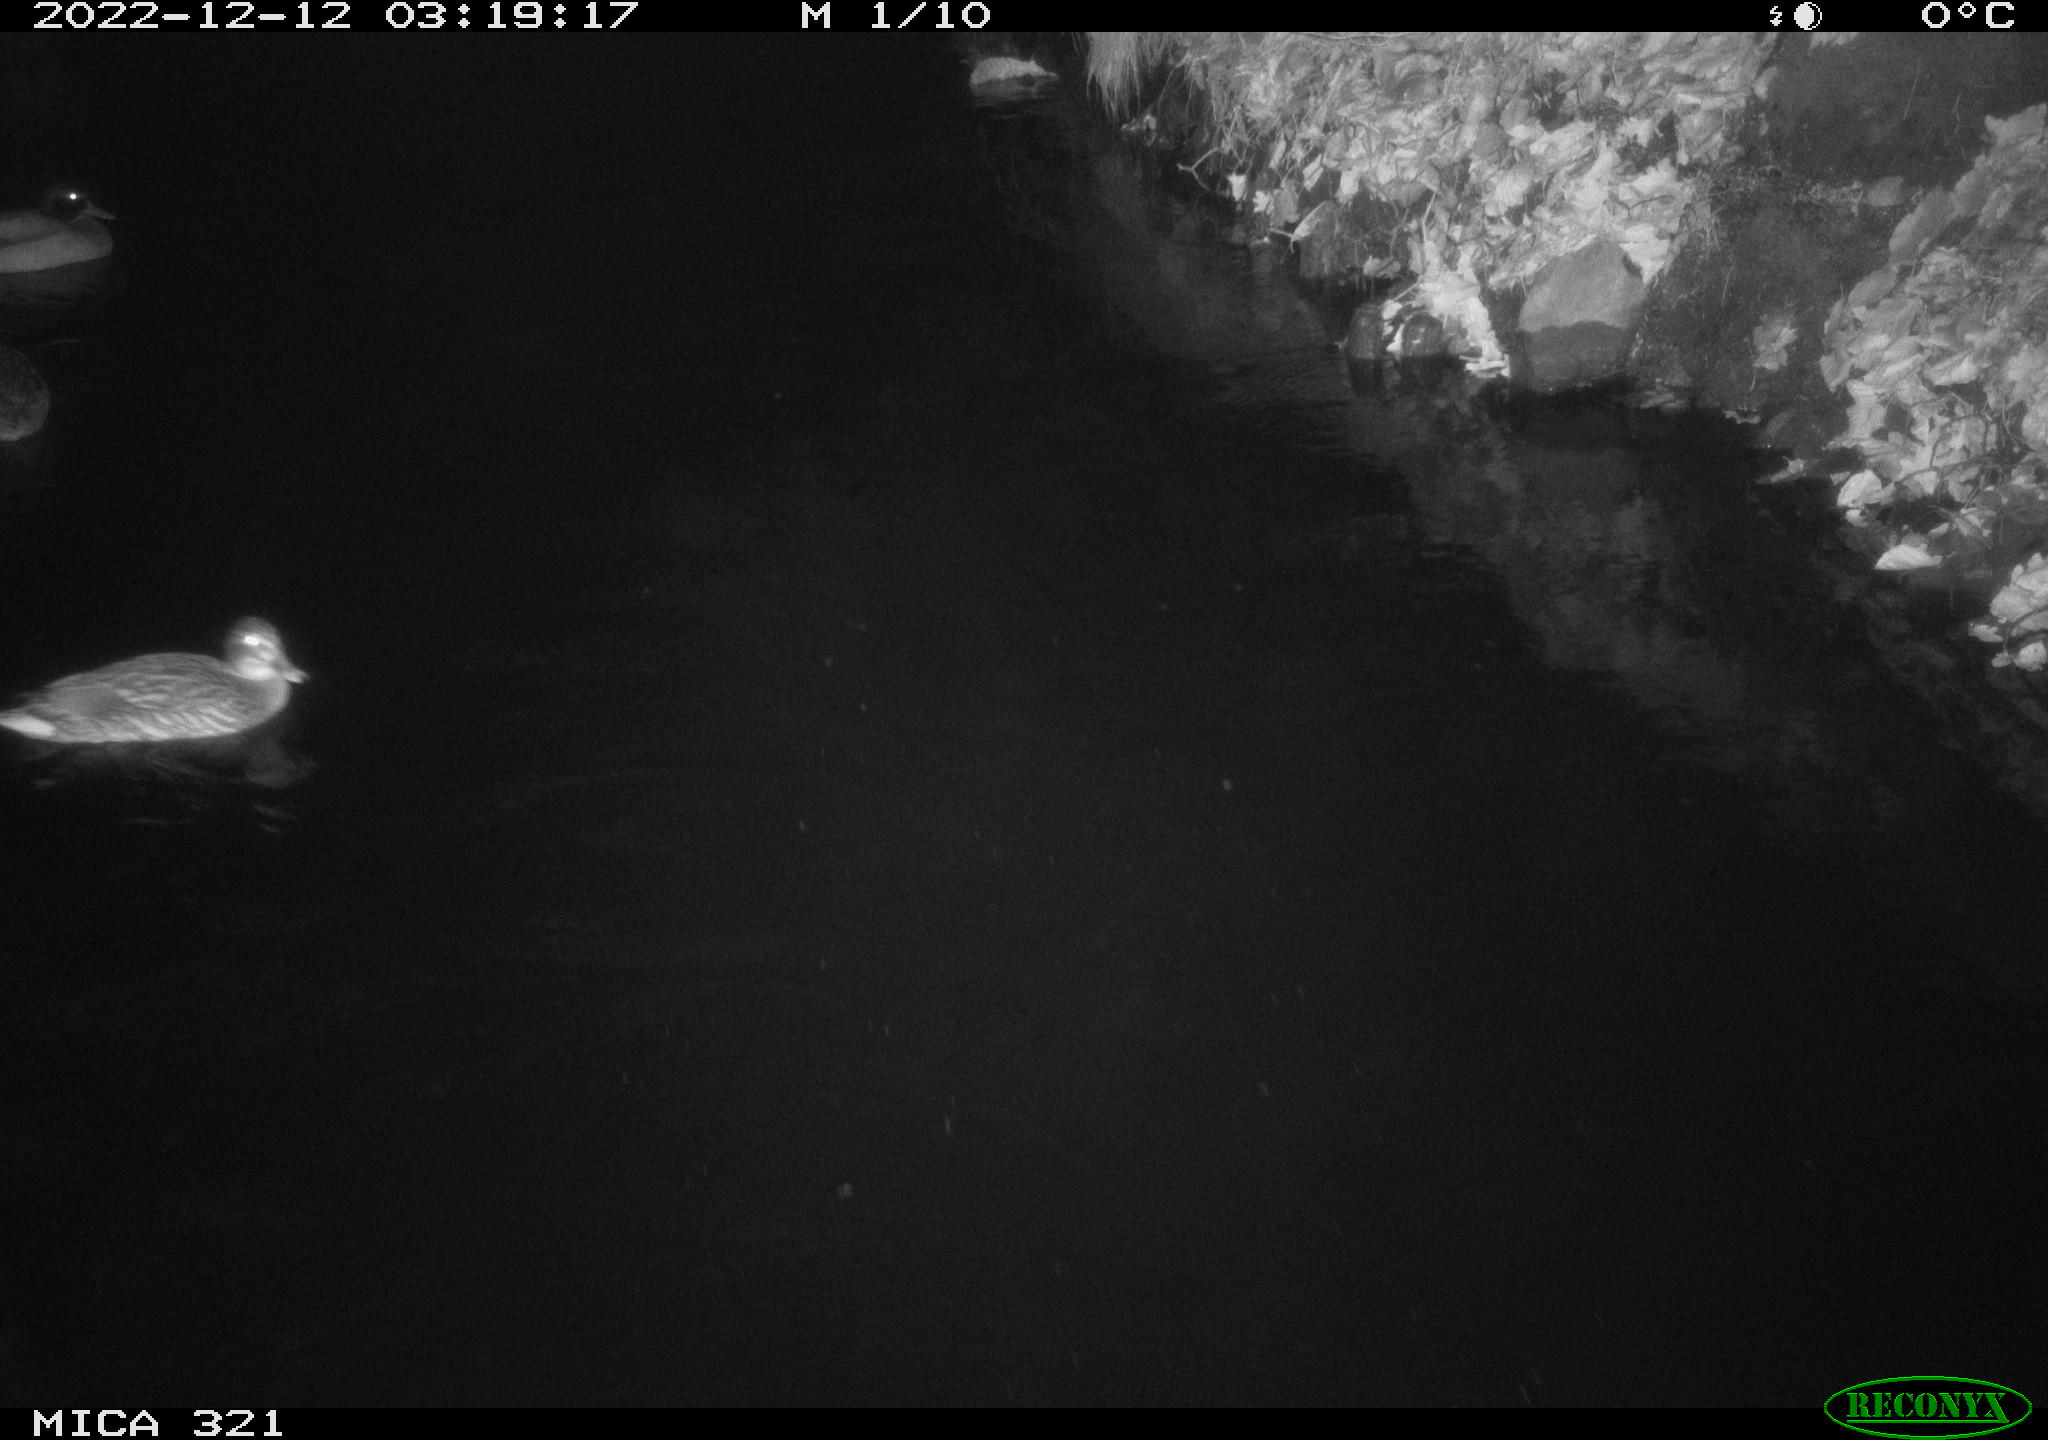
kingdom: Animalia
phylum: Chordata
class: Aves
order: Anseriformes
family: Anatidae
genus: Anas
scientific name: Anas
